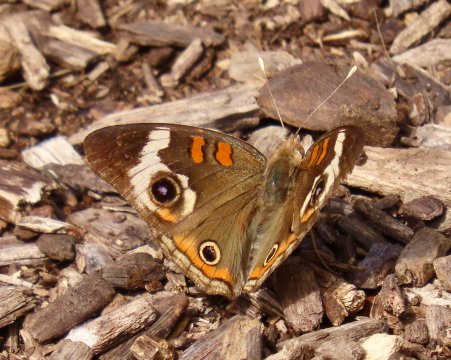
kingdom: Animalia
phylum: Arthropoda
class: Insecta
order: Lepidoptera
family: Nymphalidae
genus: Junonia
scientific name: Junonia coenia
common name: Common Buckeye
